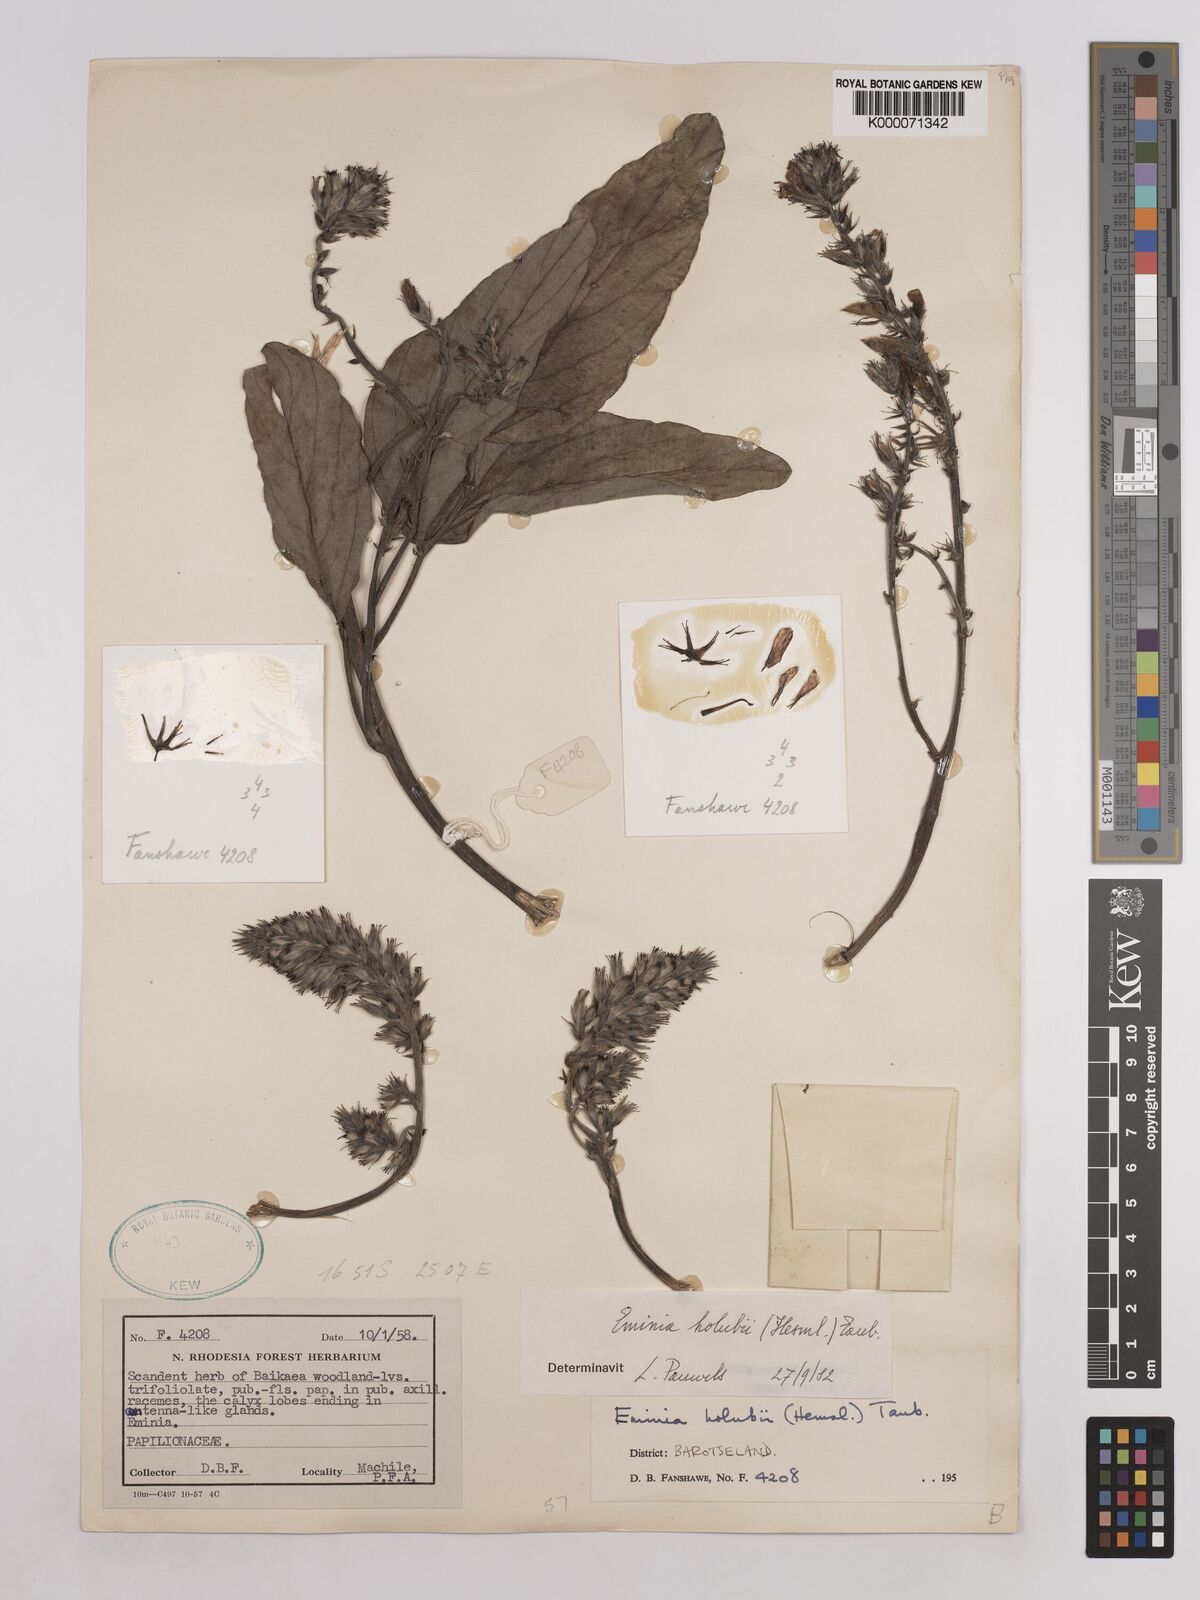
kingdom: Plantae
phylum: Tracheophyta
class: Magnoliopsida
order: Fabales
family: Fabaceae
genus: Eminia
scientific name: Eminia holubii
